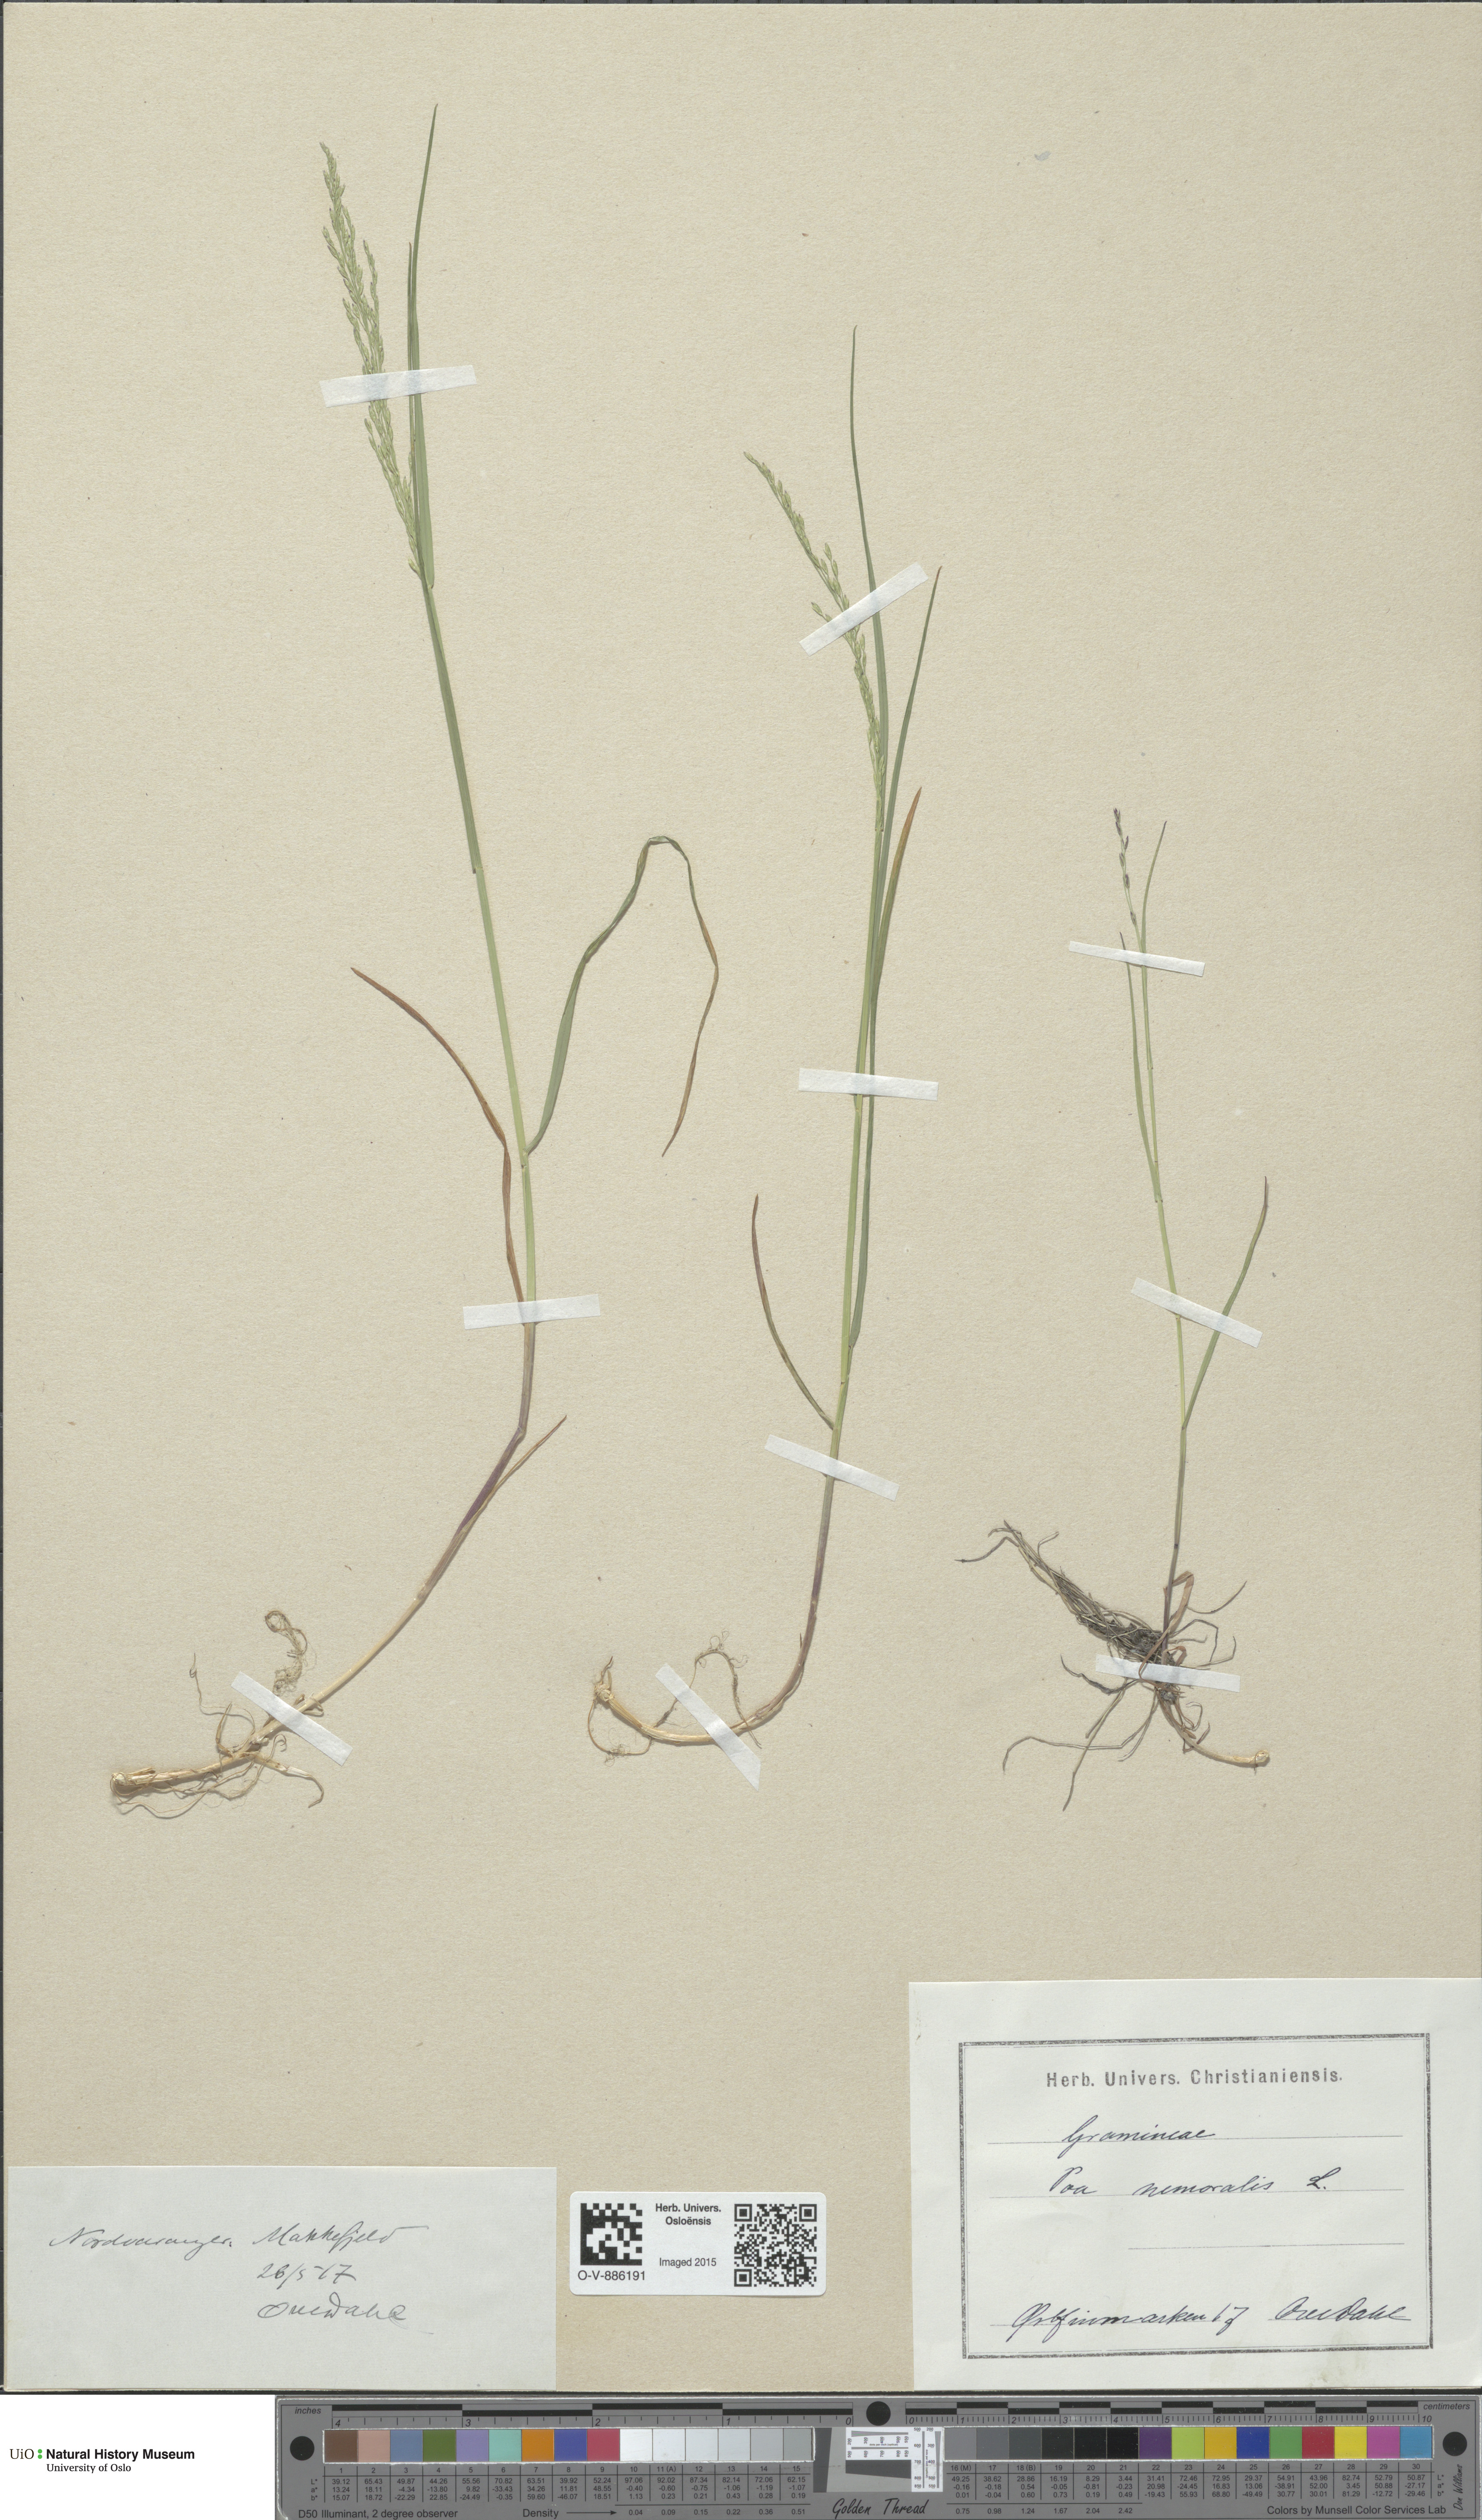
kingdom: Plantae
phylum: Tracheophyta
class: Liliopsida
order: Poales
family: Poaceae
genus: Poa
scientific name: Poa nemoralis
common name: Wood bluegrass
